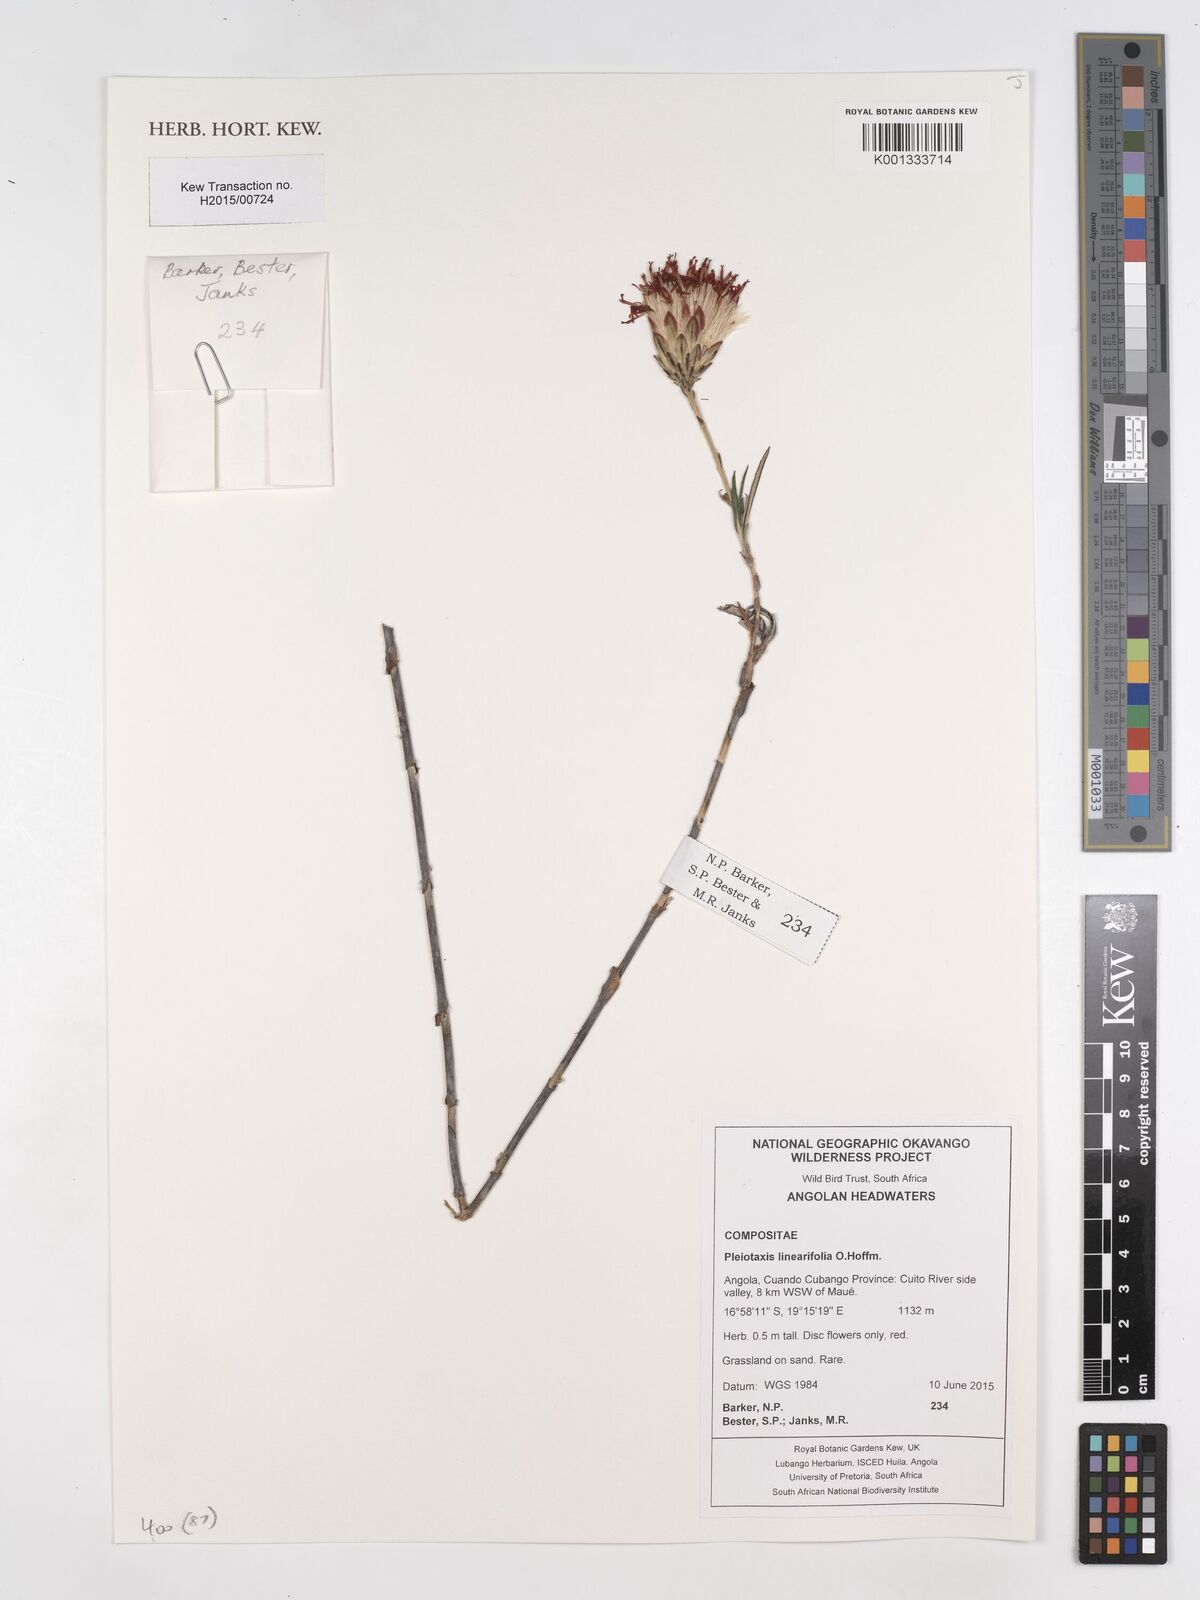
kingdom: Plantae
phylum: Tracheophyta
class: Magnoliopsida
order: Asterales
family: Asteraceae
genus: Pleiotaxis
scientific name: Pleiotaxis linearifolia
